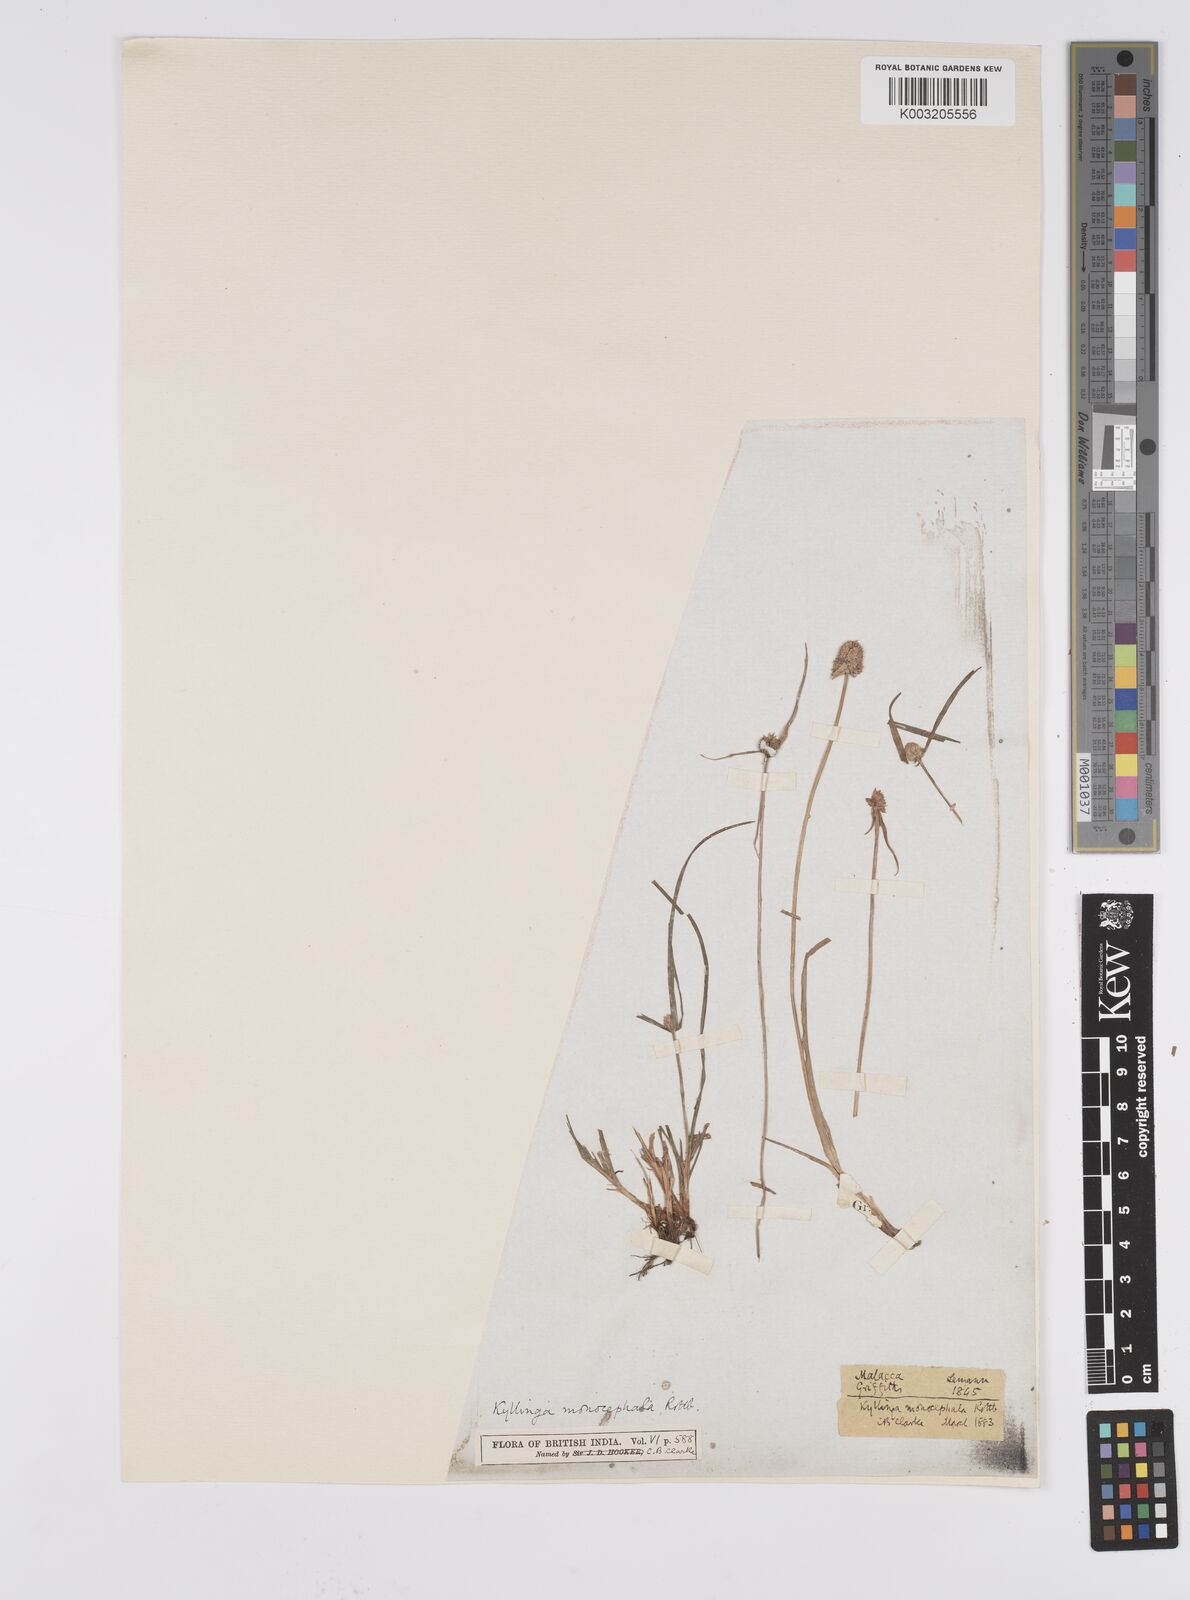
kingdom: Plantae
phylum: Tracheophyta
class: Liliopsida
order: Poales
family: Cyperaceae
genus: Cyperus
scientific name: Cyperus nemoralis
